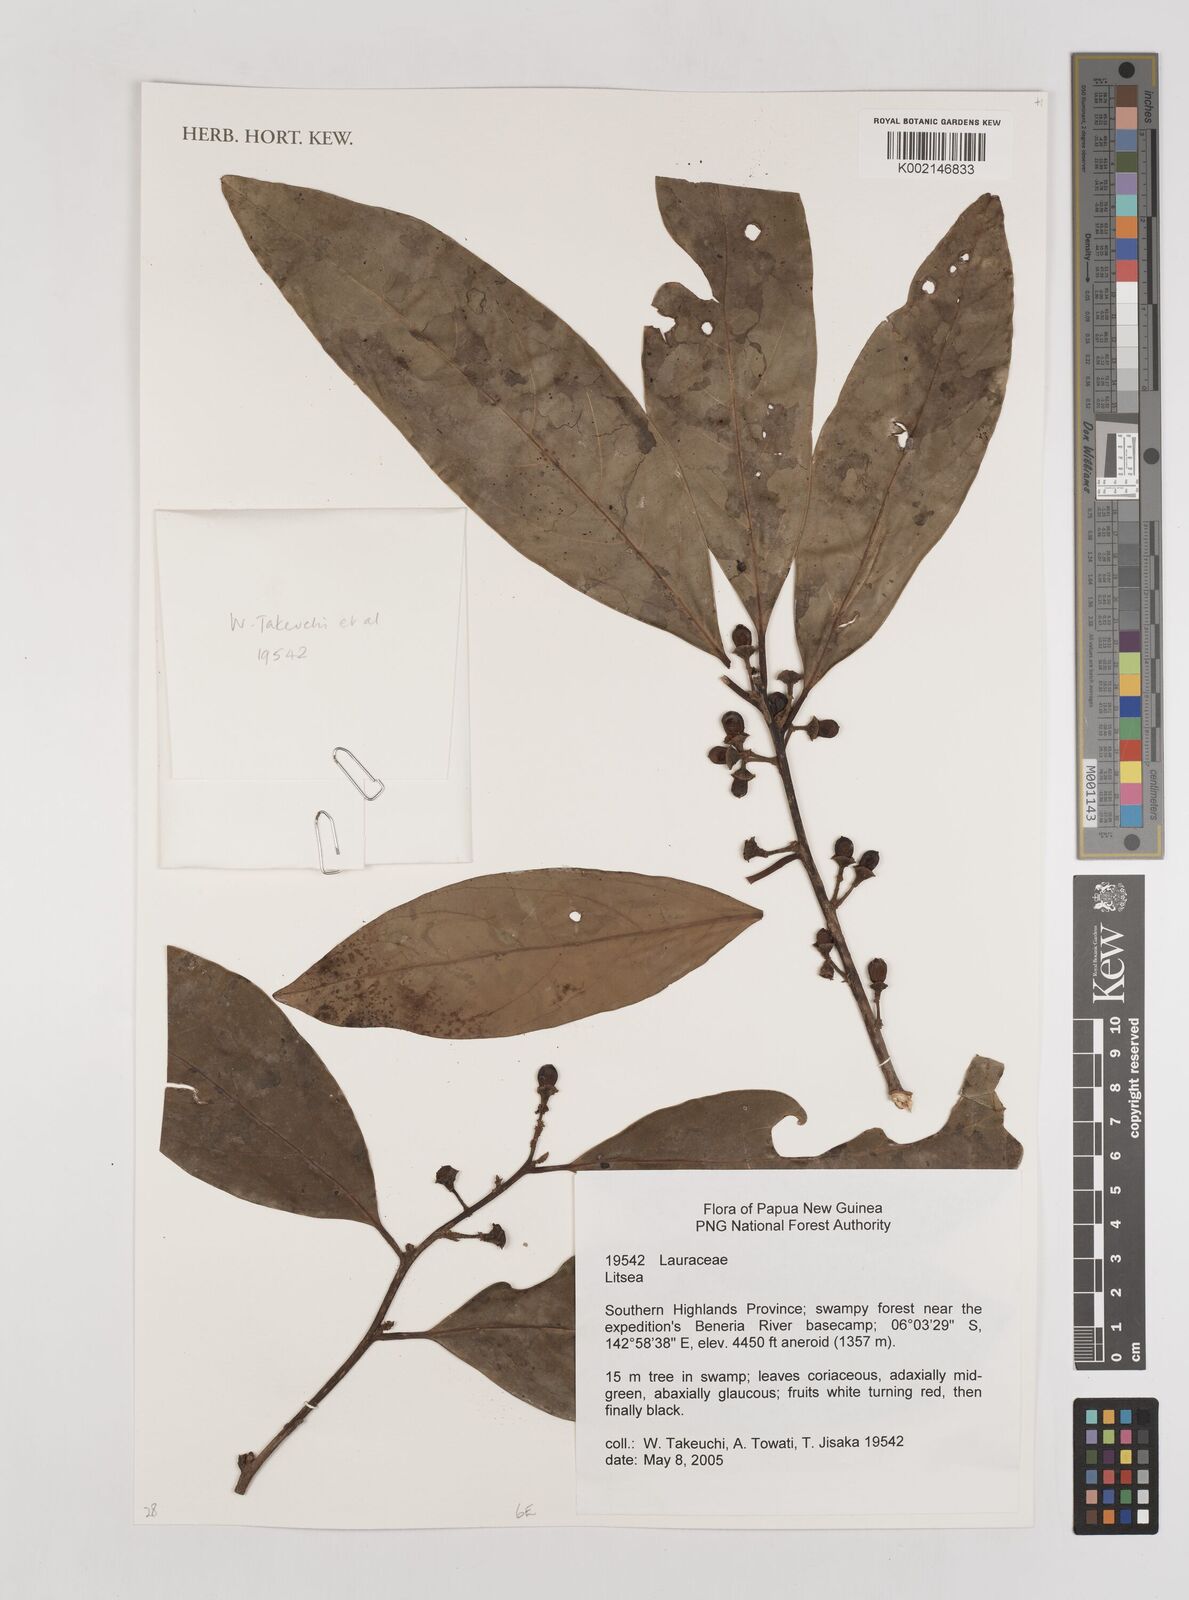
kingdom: Plantae
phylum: Tracheophyta
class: Magnoliopsida
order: Laurales
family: Lauraceae
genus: Litsea
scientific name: Litsea
